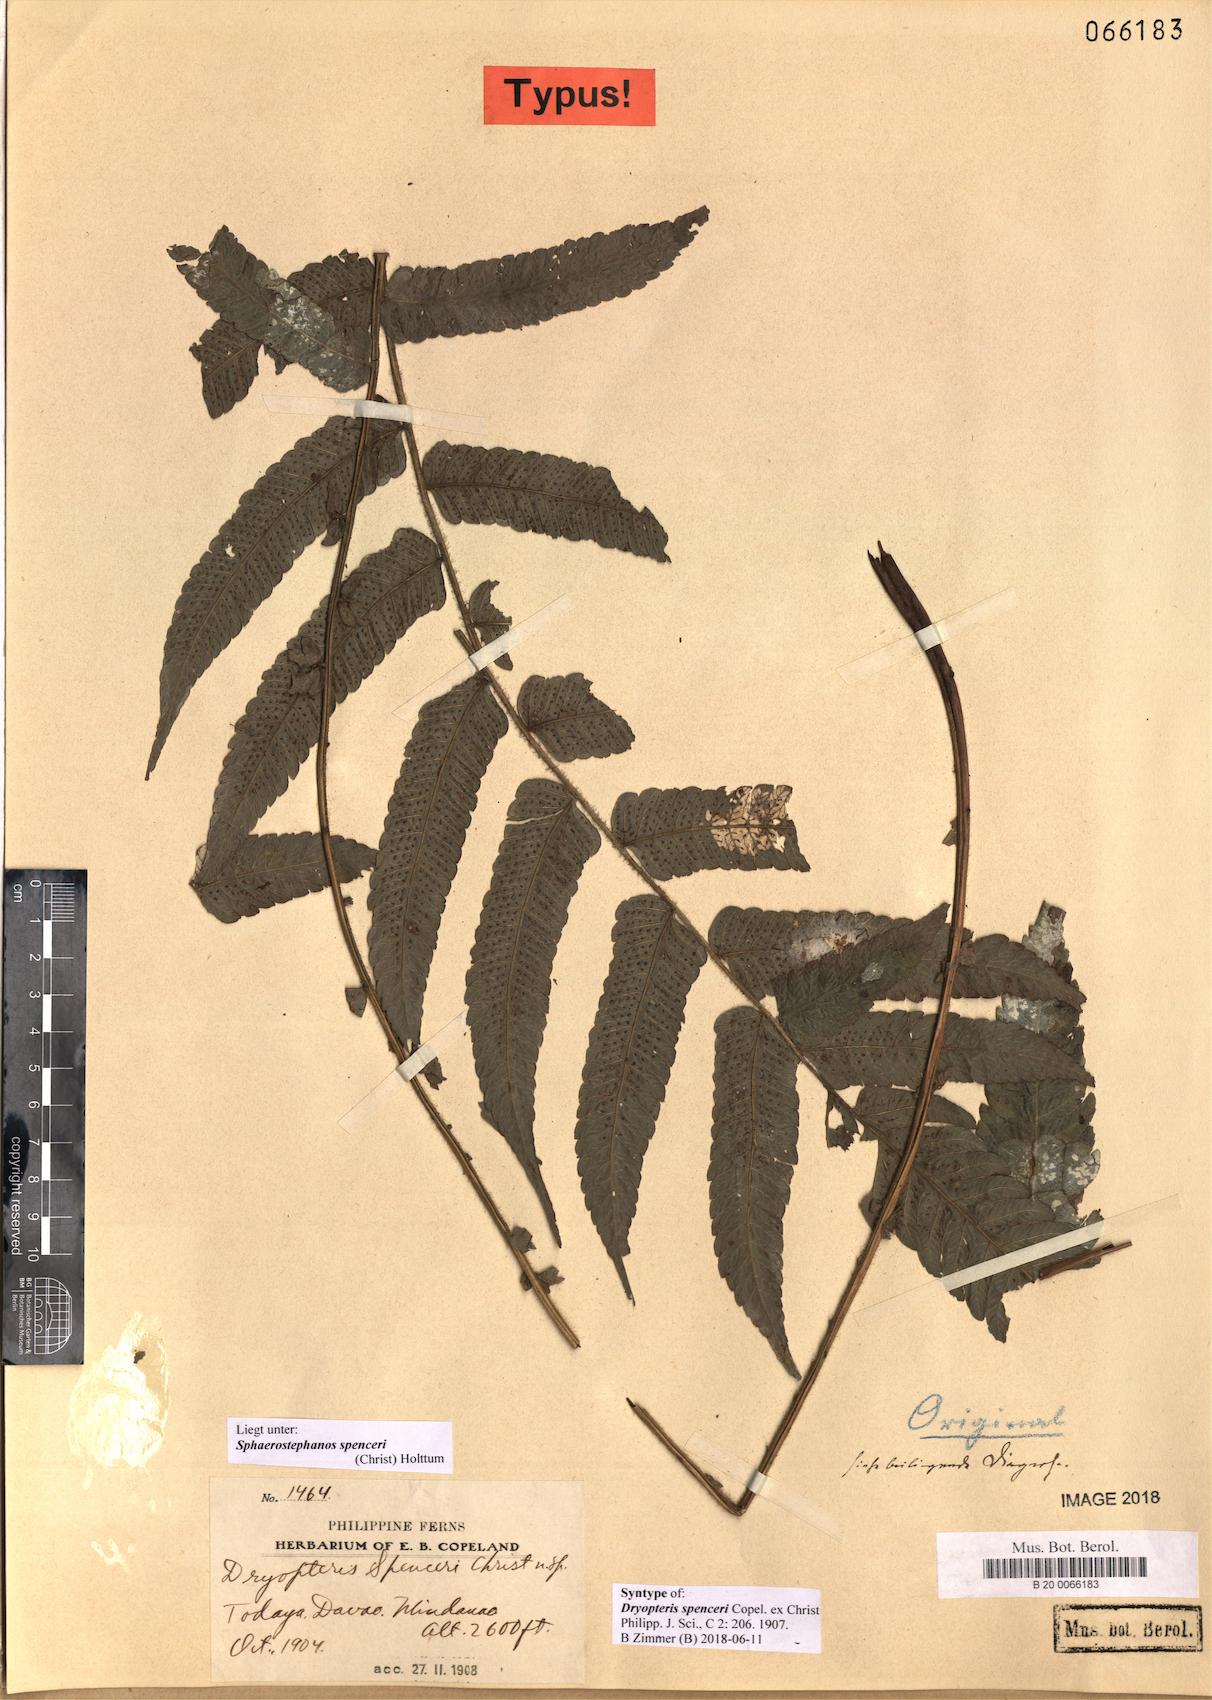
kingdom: Plantae
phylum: Tracheophyta
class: Polypodiopsida
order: Polypodiales
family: Thelypteridaceae
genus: Sphaerostephanos
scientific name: Sphaerostephanos spenceri
